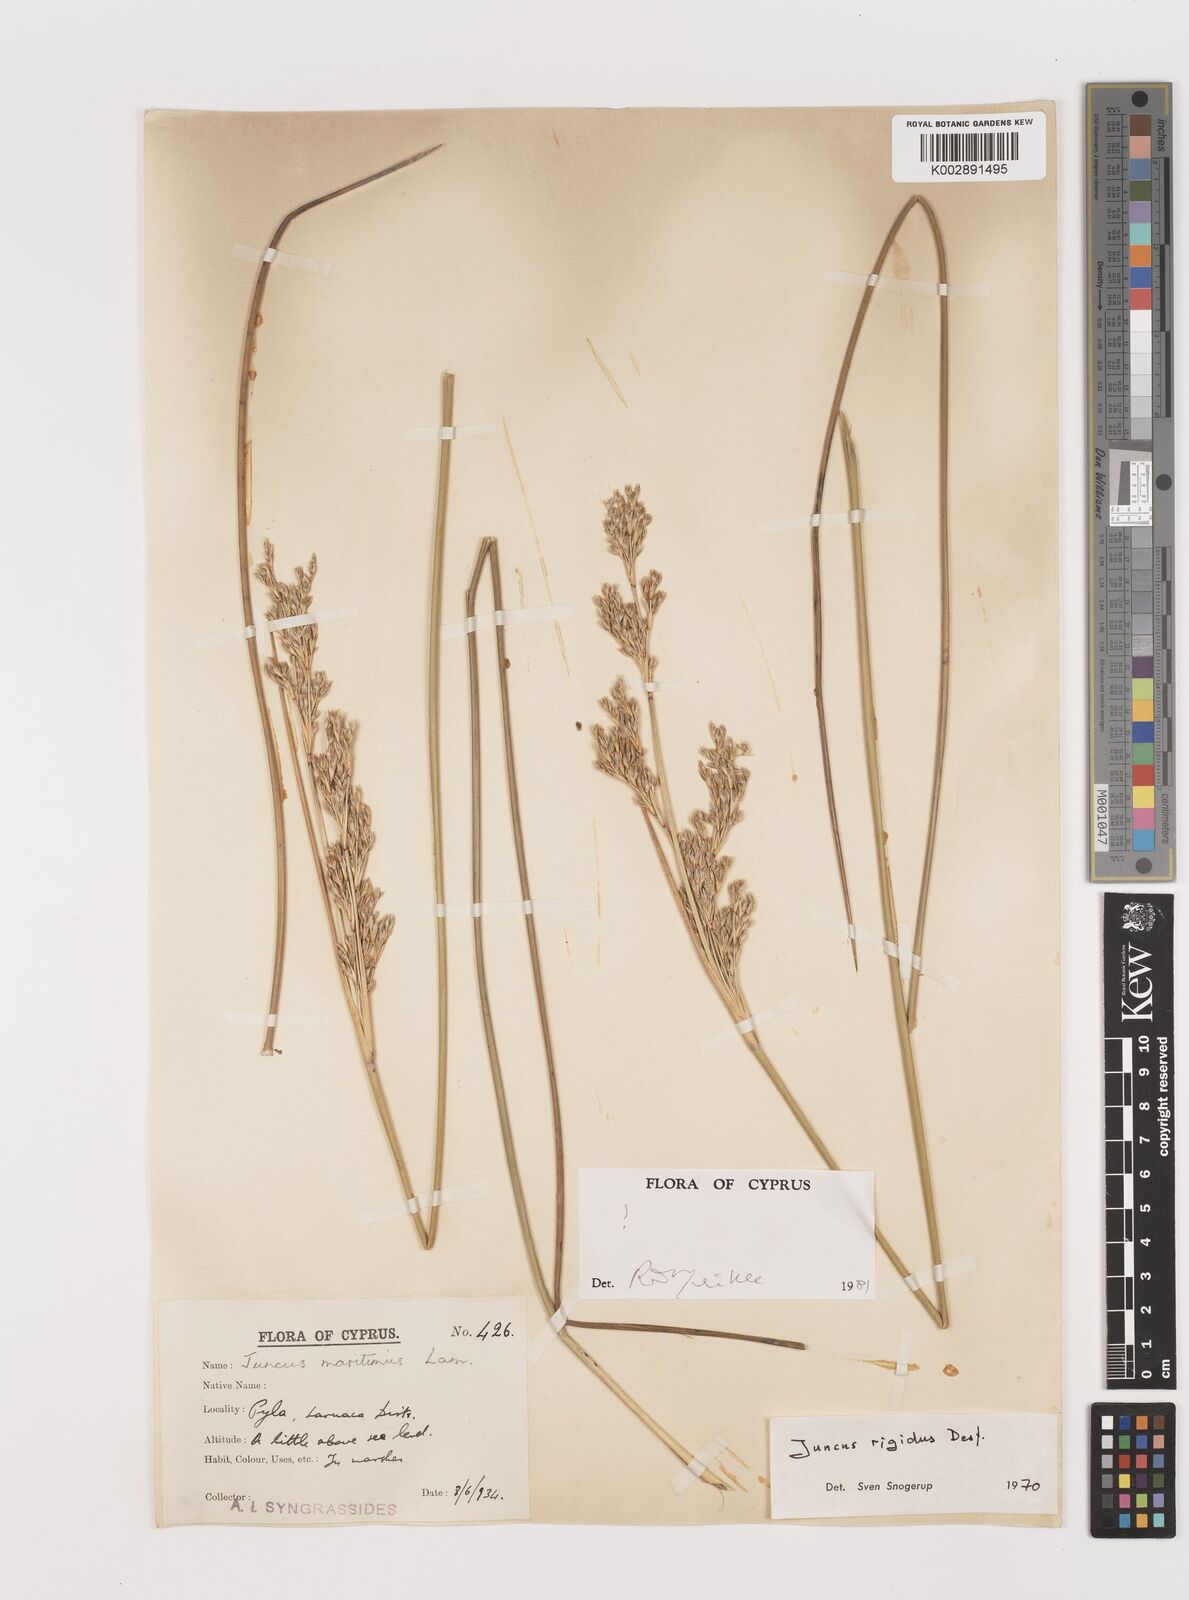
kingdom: Plantae
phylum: Tracheophyta
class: Liliopsida
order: Poales
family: Juncaceae
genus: Juncus
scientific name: Juncus rigidus
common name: Hard sea rush
